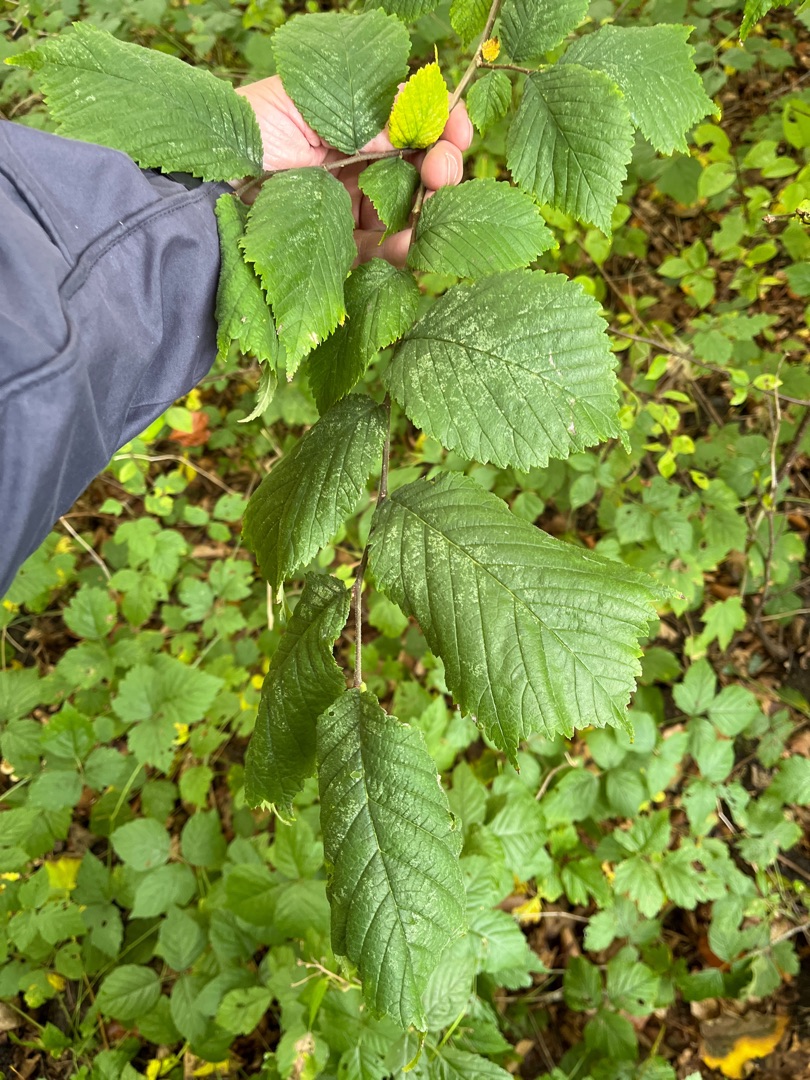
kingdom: Plantae
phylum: Tracheophyta
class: Magnoliopsida
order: Rosales
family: Ulmaceae
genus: Ulmus
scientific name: Ulmus glabra
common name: Skov-elm/storbladet elm
